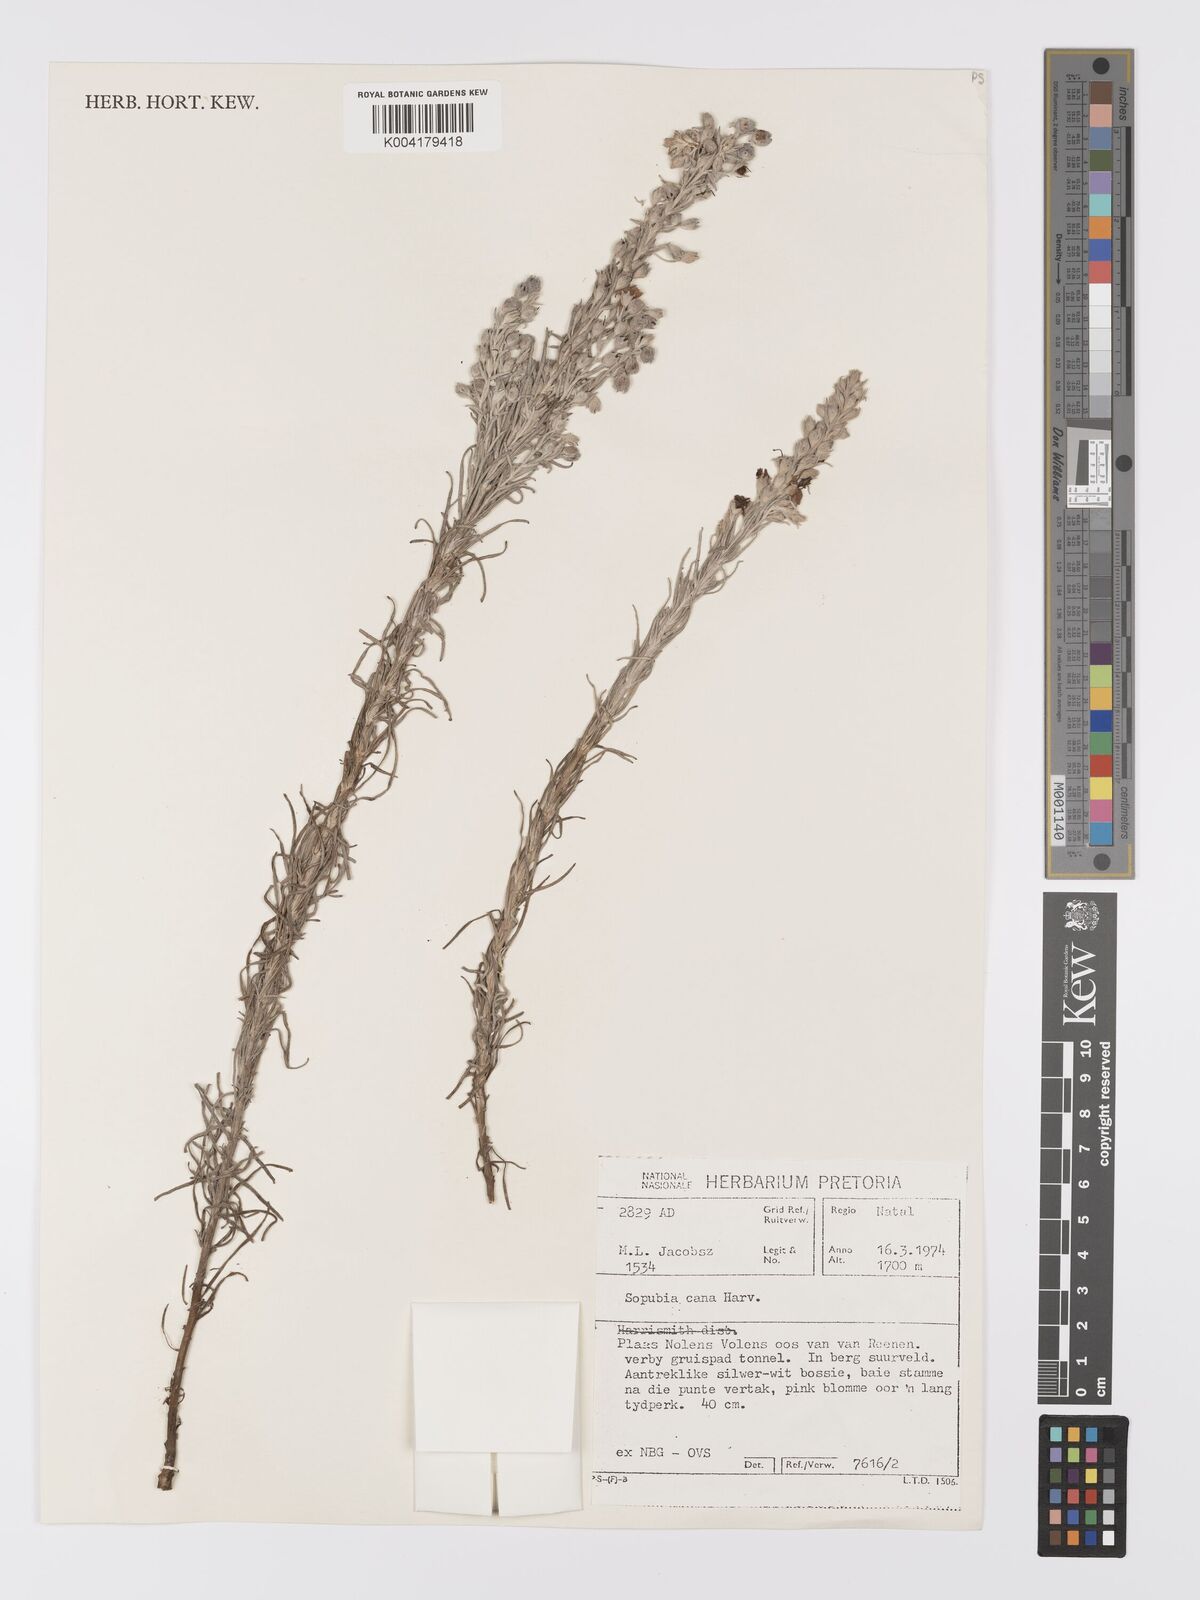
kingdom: Plantae
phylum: Tracheophyta
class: Magnoliopsida
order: Lamiales
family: Orobanchaceae
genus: Sopubia
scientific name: Sopubia cana
